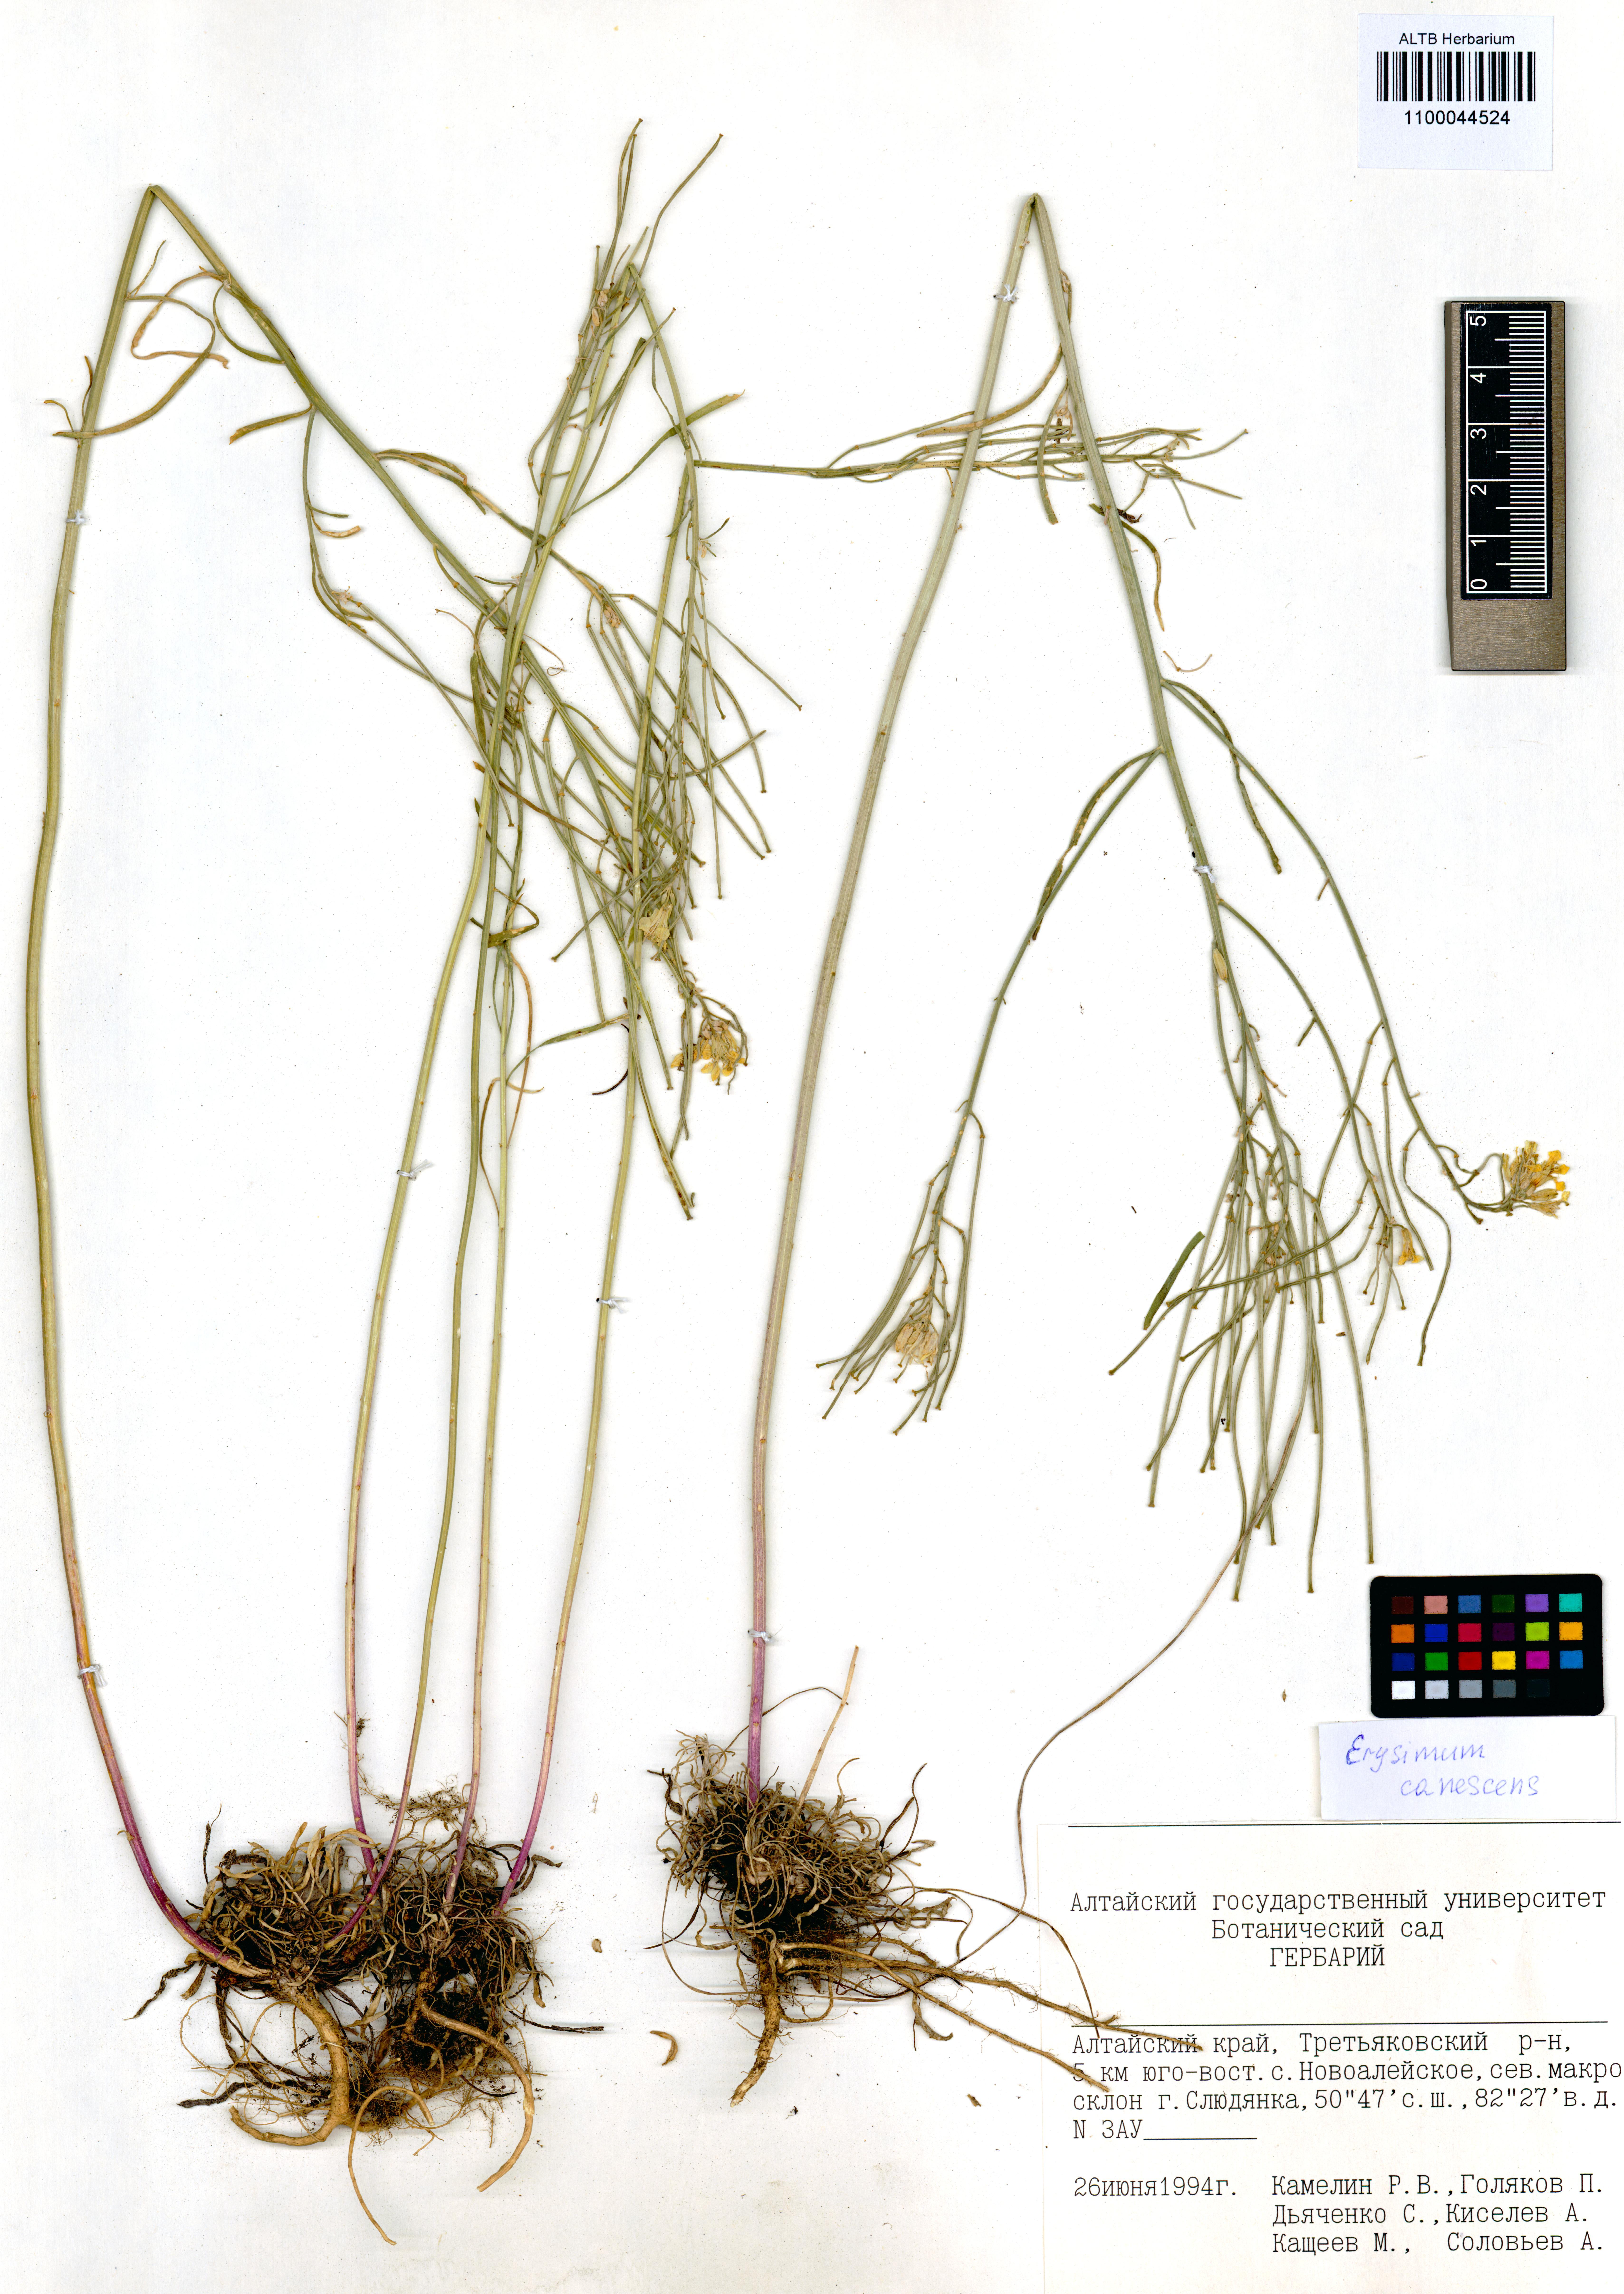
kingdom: Plantae
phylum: Tracheophyta
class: Magnoliopsida
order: Brassicales
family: Brassicaceae
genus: Erysimum
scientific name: Erysimum canescens
